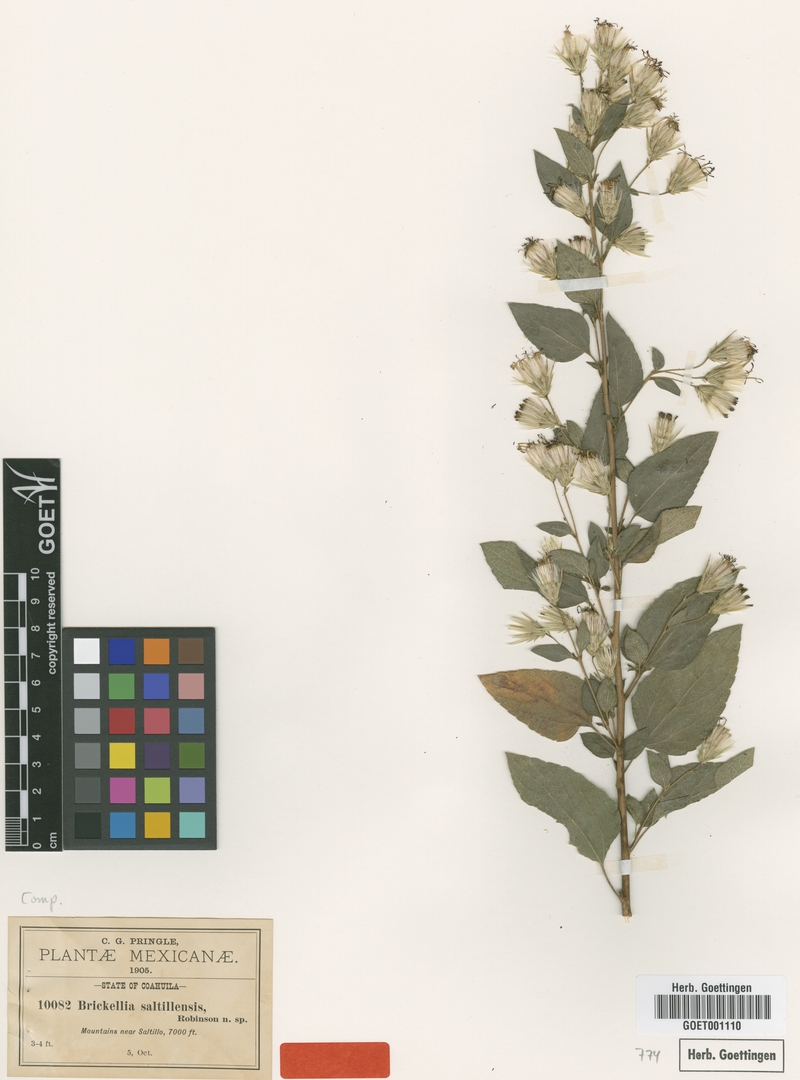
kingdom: Plantae
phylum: Tracheophyta
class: Magnoliopsida
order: Asterales
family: Asteraceae
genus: Brickellia
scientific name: Brickellia secundiflora
